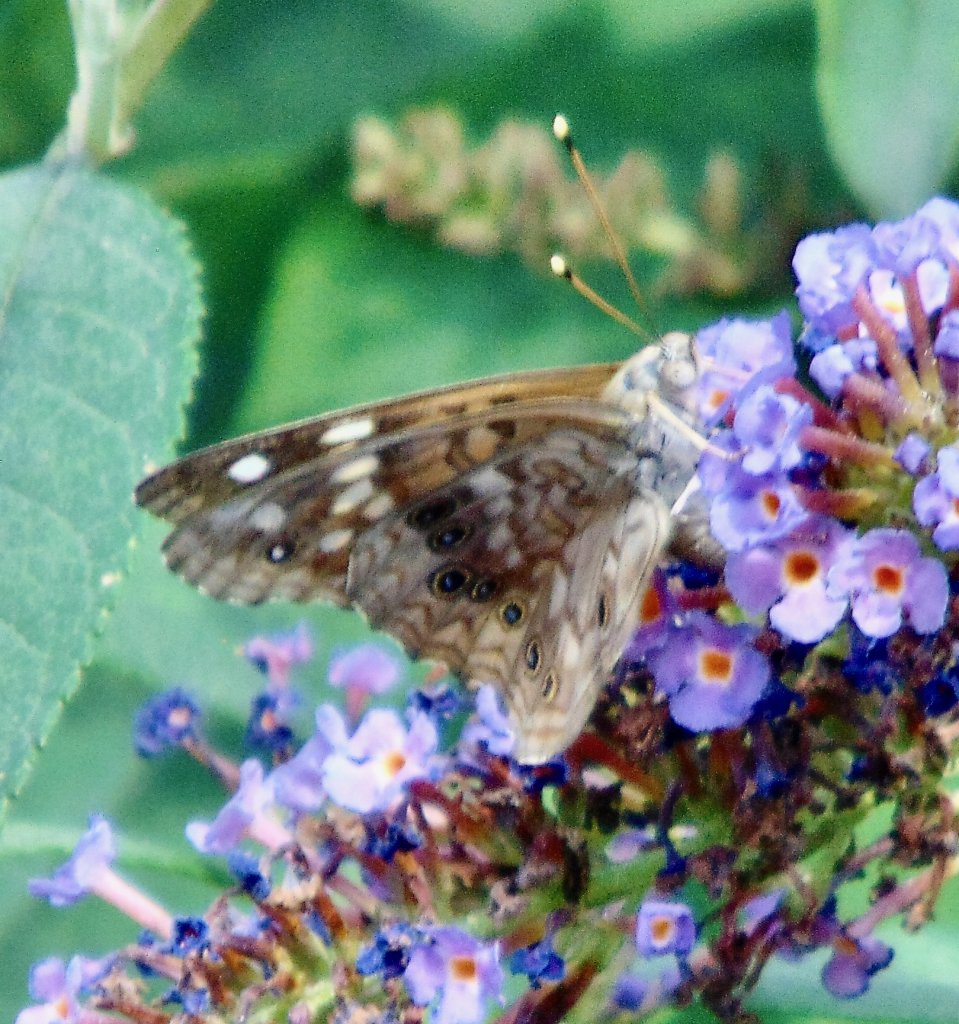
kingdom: Animalia
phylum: Arthropoda
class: Insecta
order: Lepidoptera
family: Nymphalidae
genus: Asterocampa
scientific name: Asterocampa celtis
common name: Hackberry Emperor
